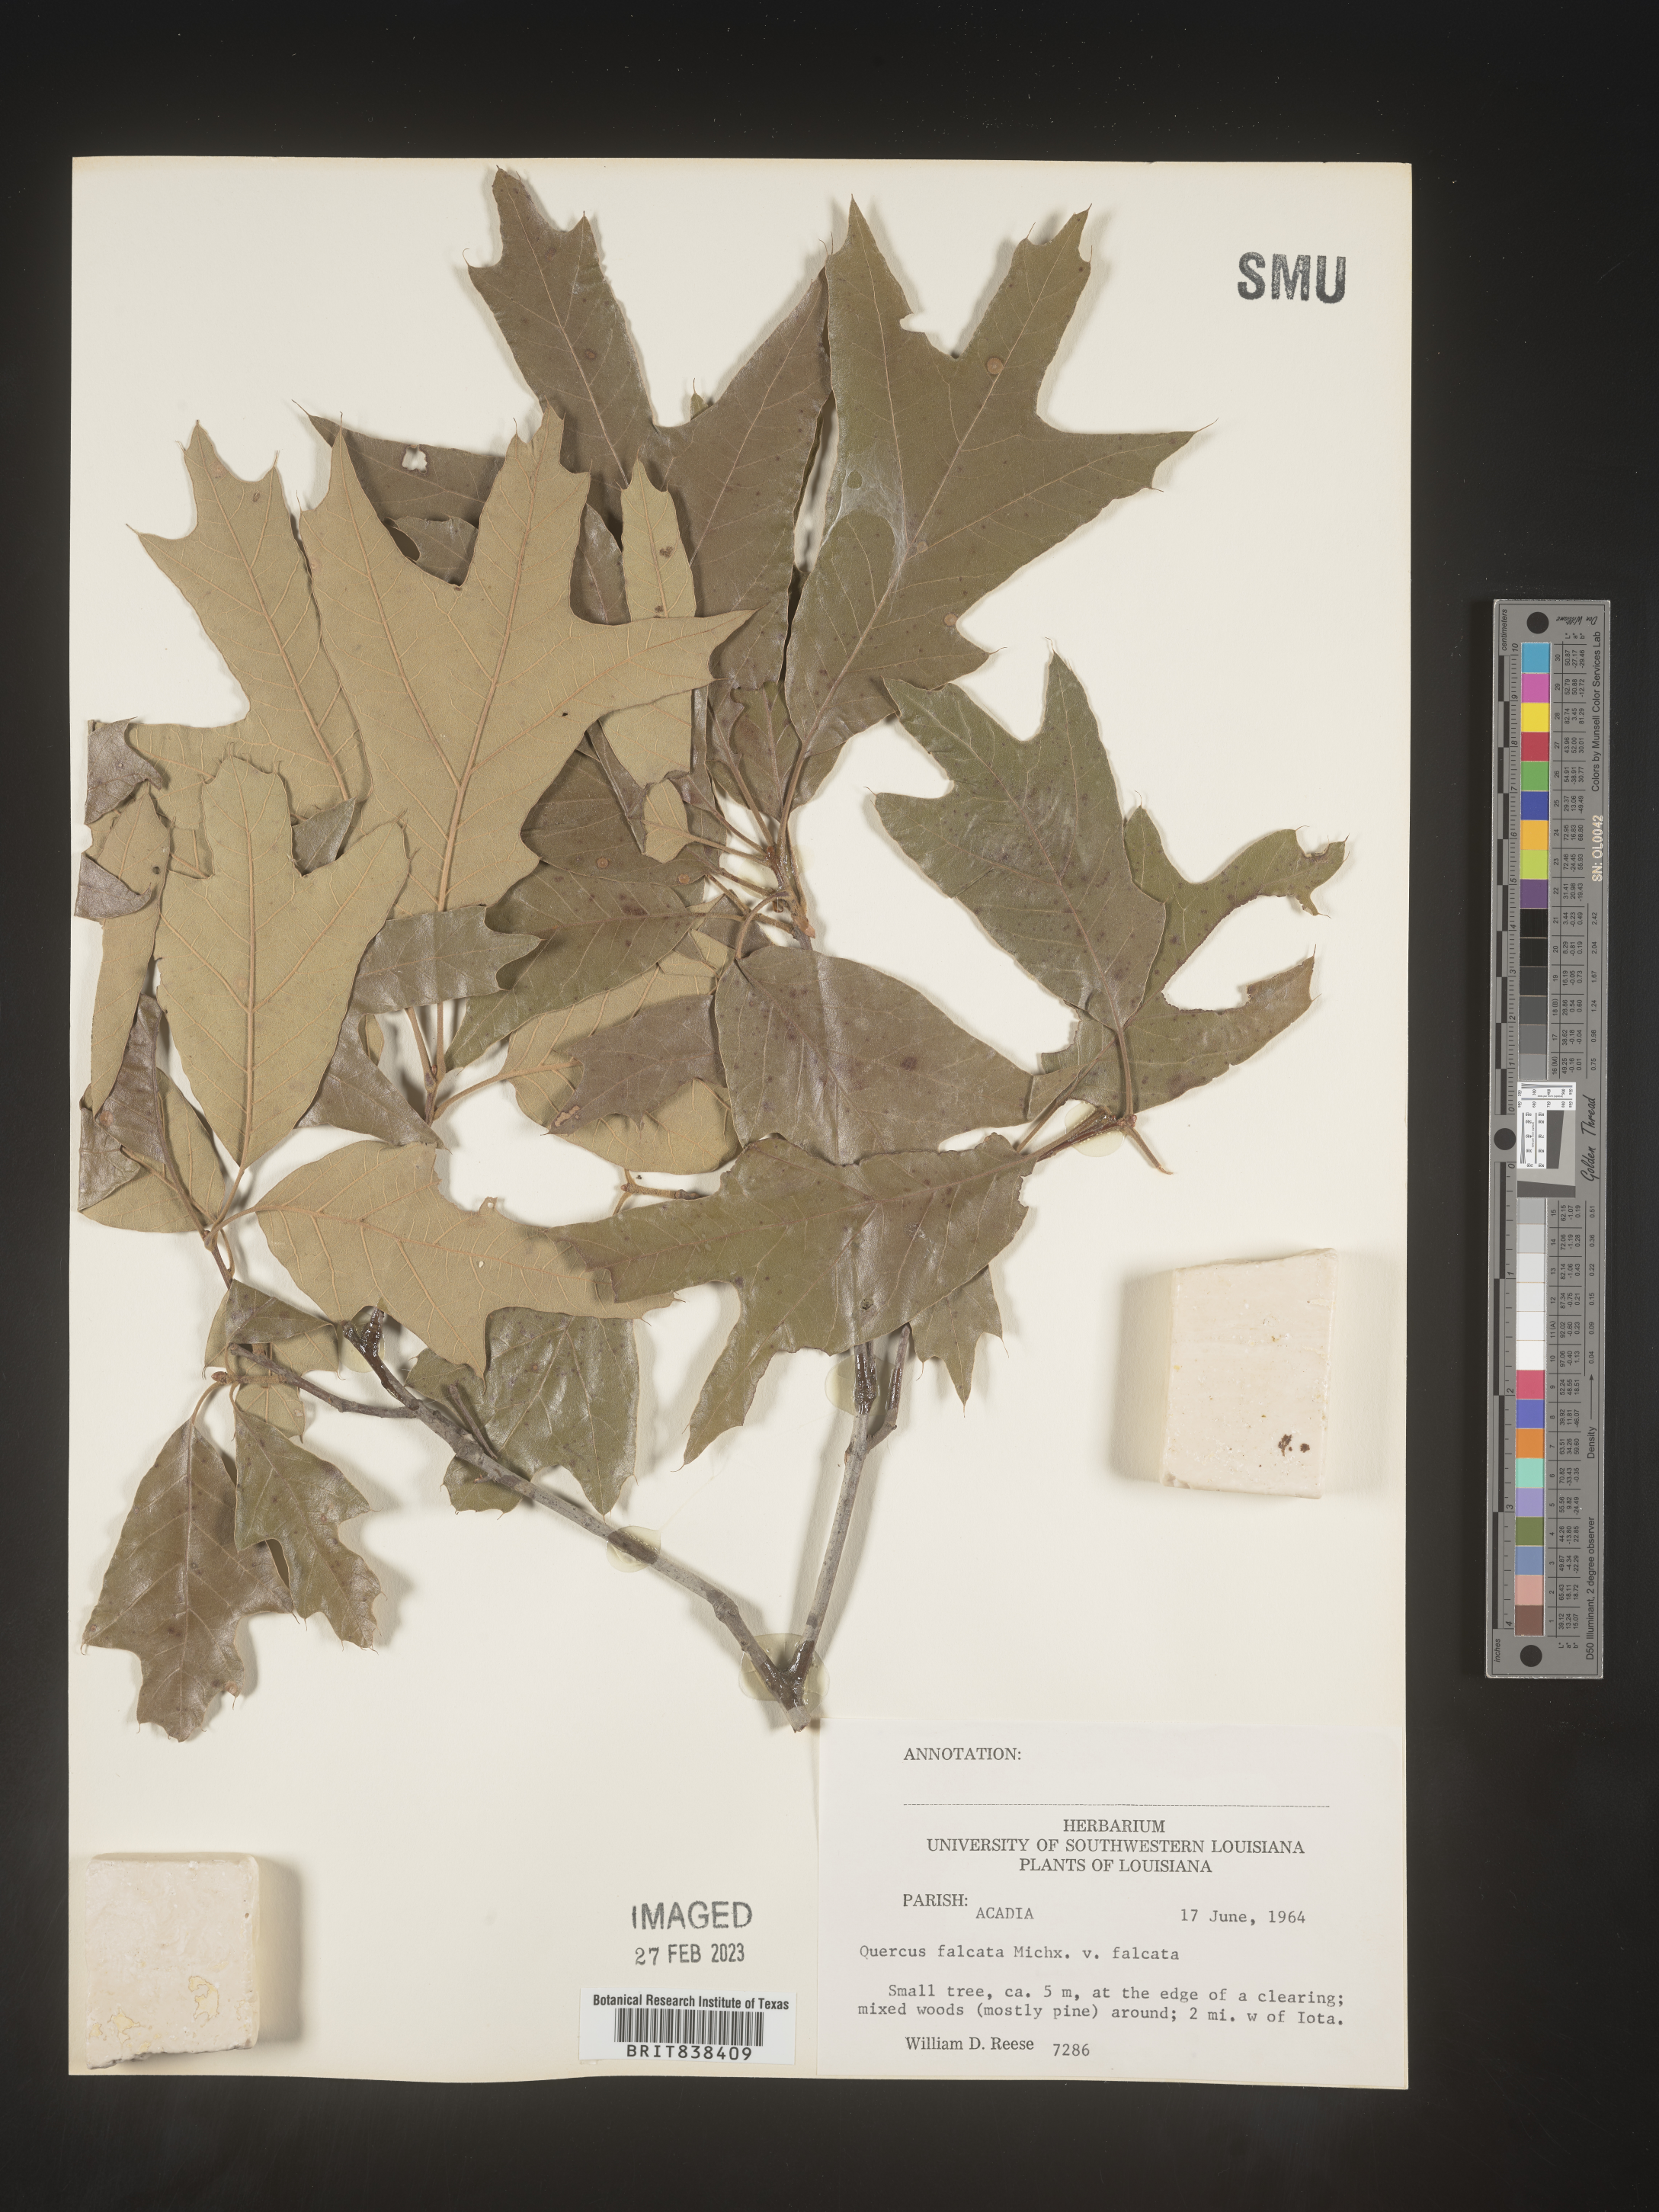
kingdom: Plantae
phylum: Tracheophyta
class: Magnoliopsida
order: Fagales
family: Fagaceae
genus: Quercus
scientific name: Quercus falcata
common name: Southern red oak
